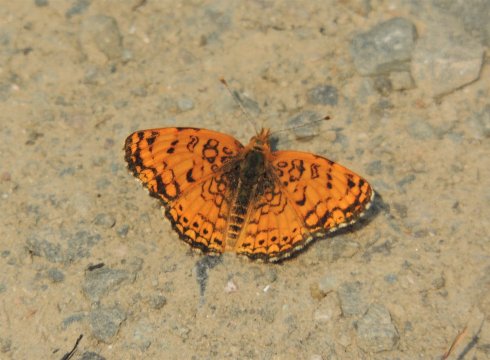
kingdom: Animalia
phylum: Arthropoda
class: Insecta
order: Lepidoptera
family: Nymphalidae
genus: Eresia
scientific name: Eresia aveyrona
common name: Mylitta Crescent
